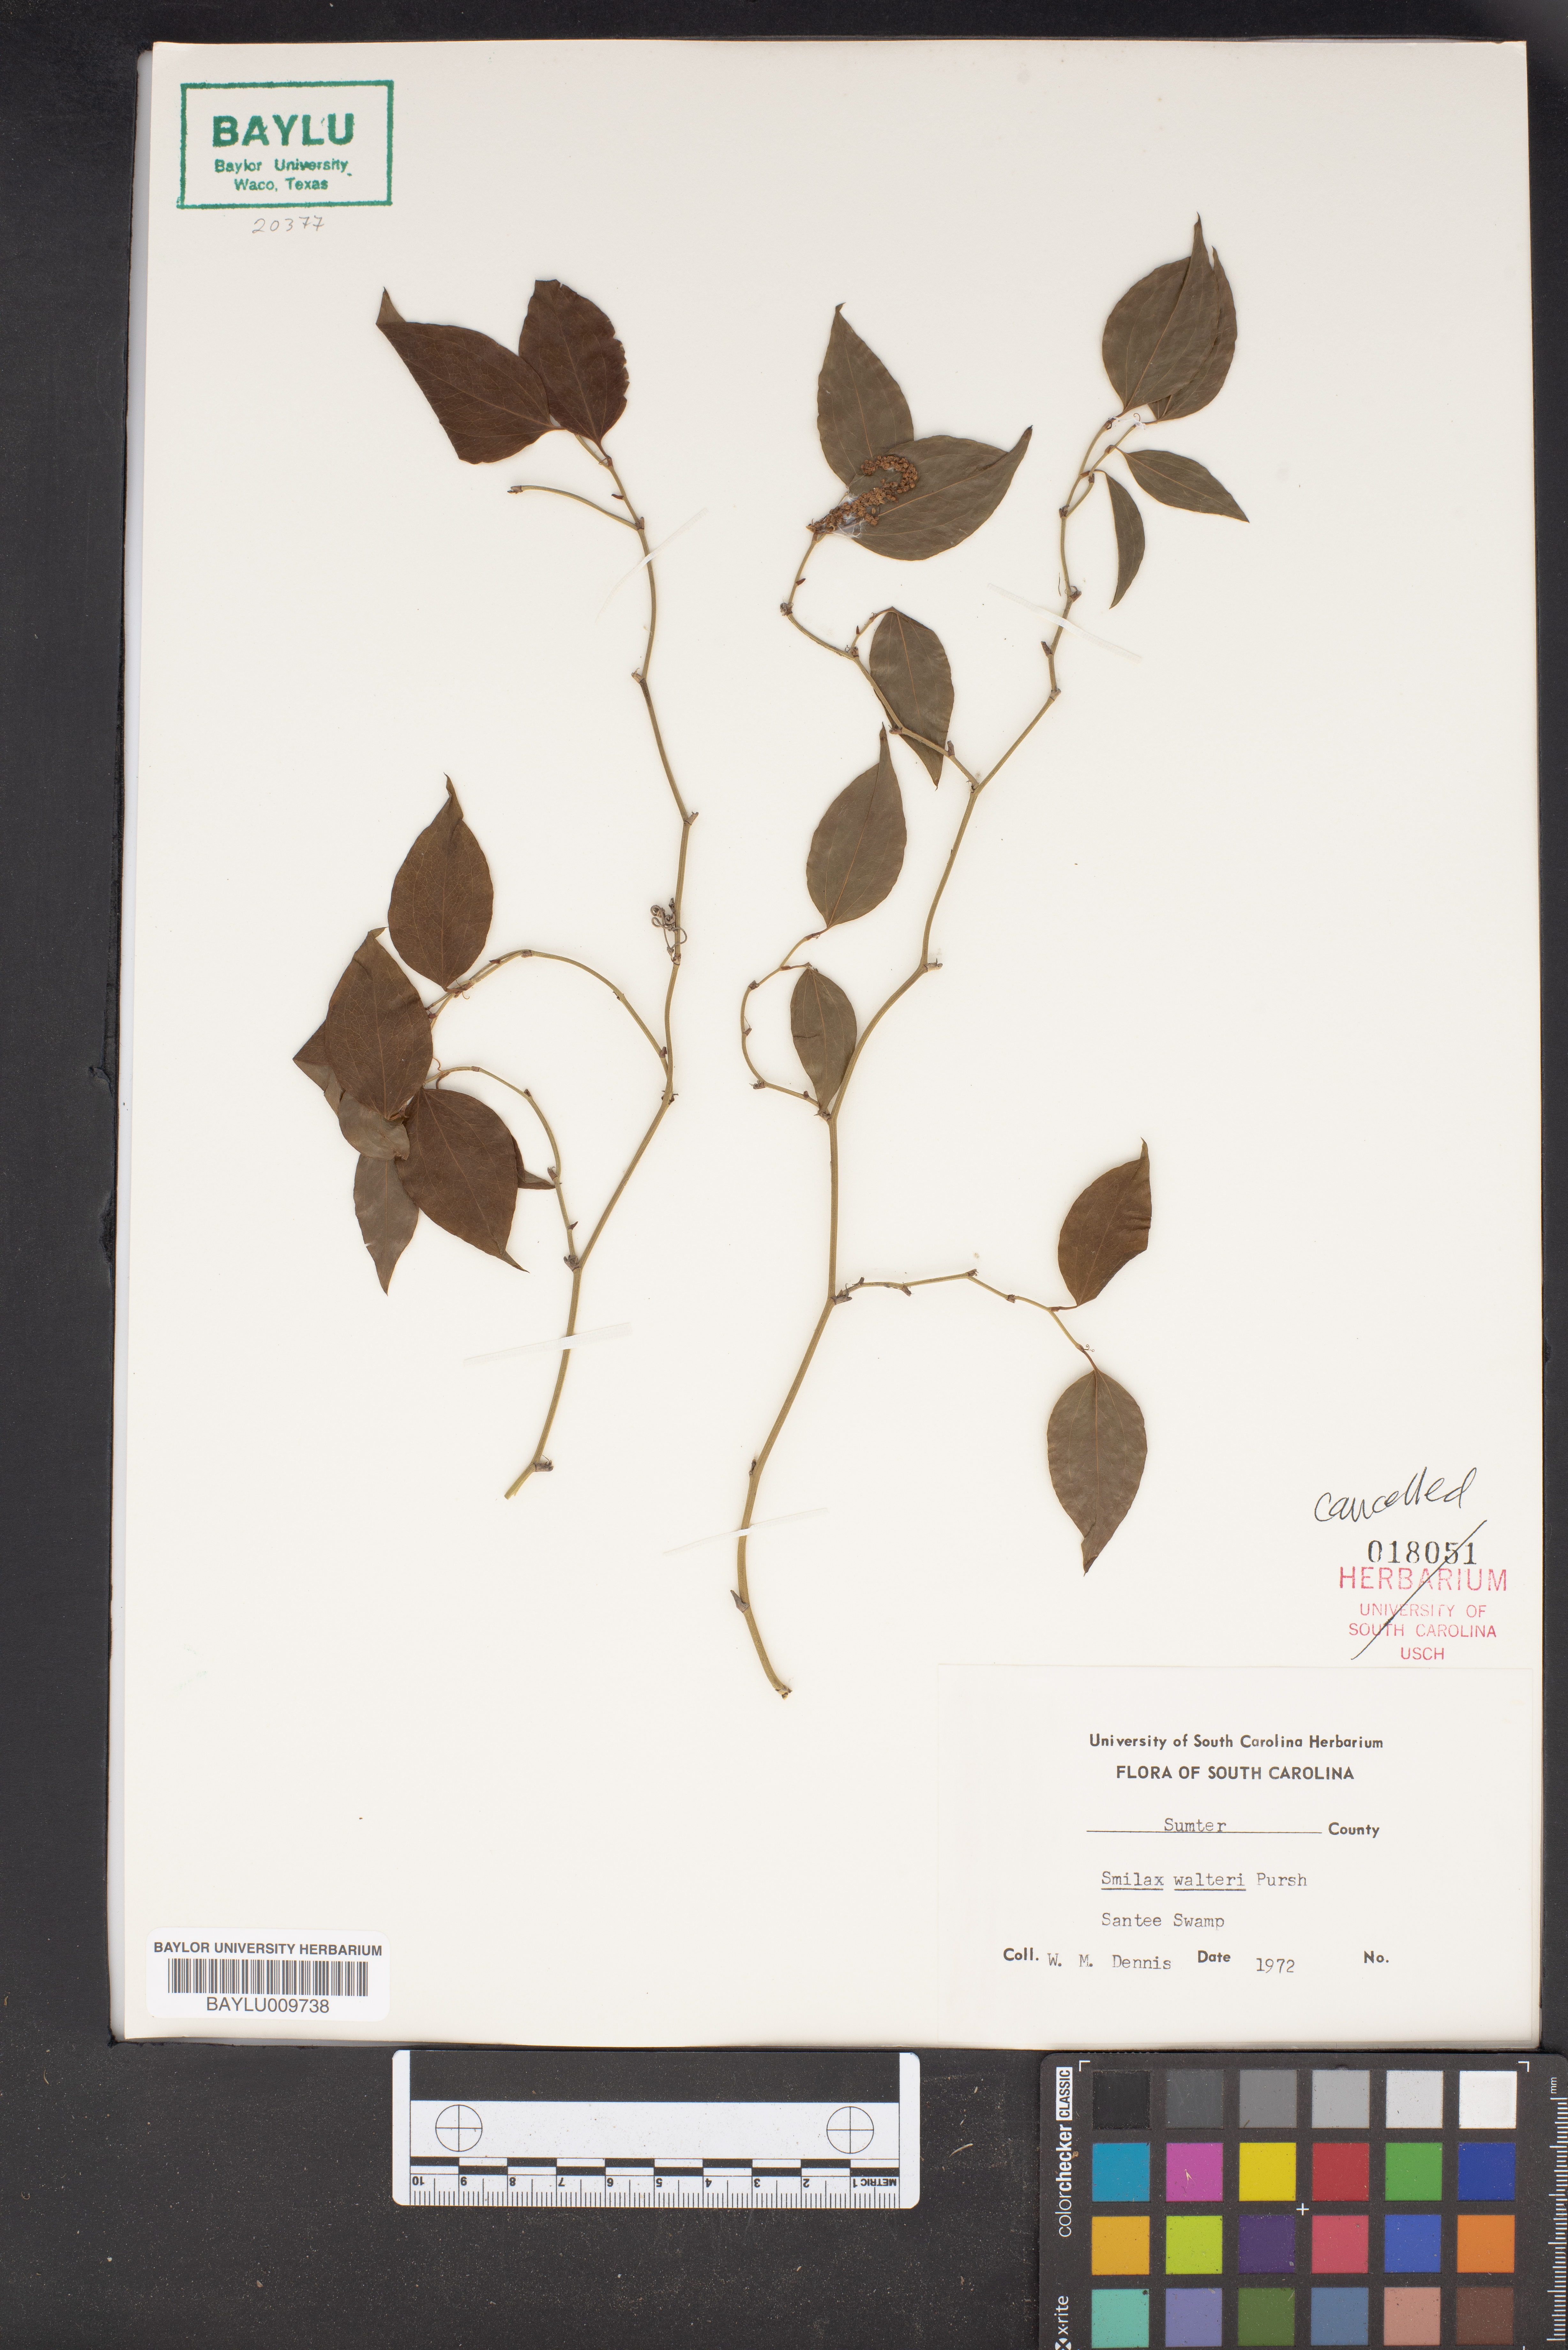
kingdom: Plantae
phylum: Tracheophyta
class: Liliopsida
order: Liliales
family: Smilacaceae
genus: Smilax
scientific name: Smilax walteri
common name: Coral greenbrier
